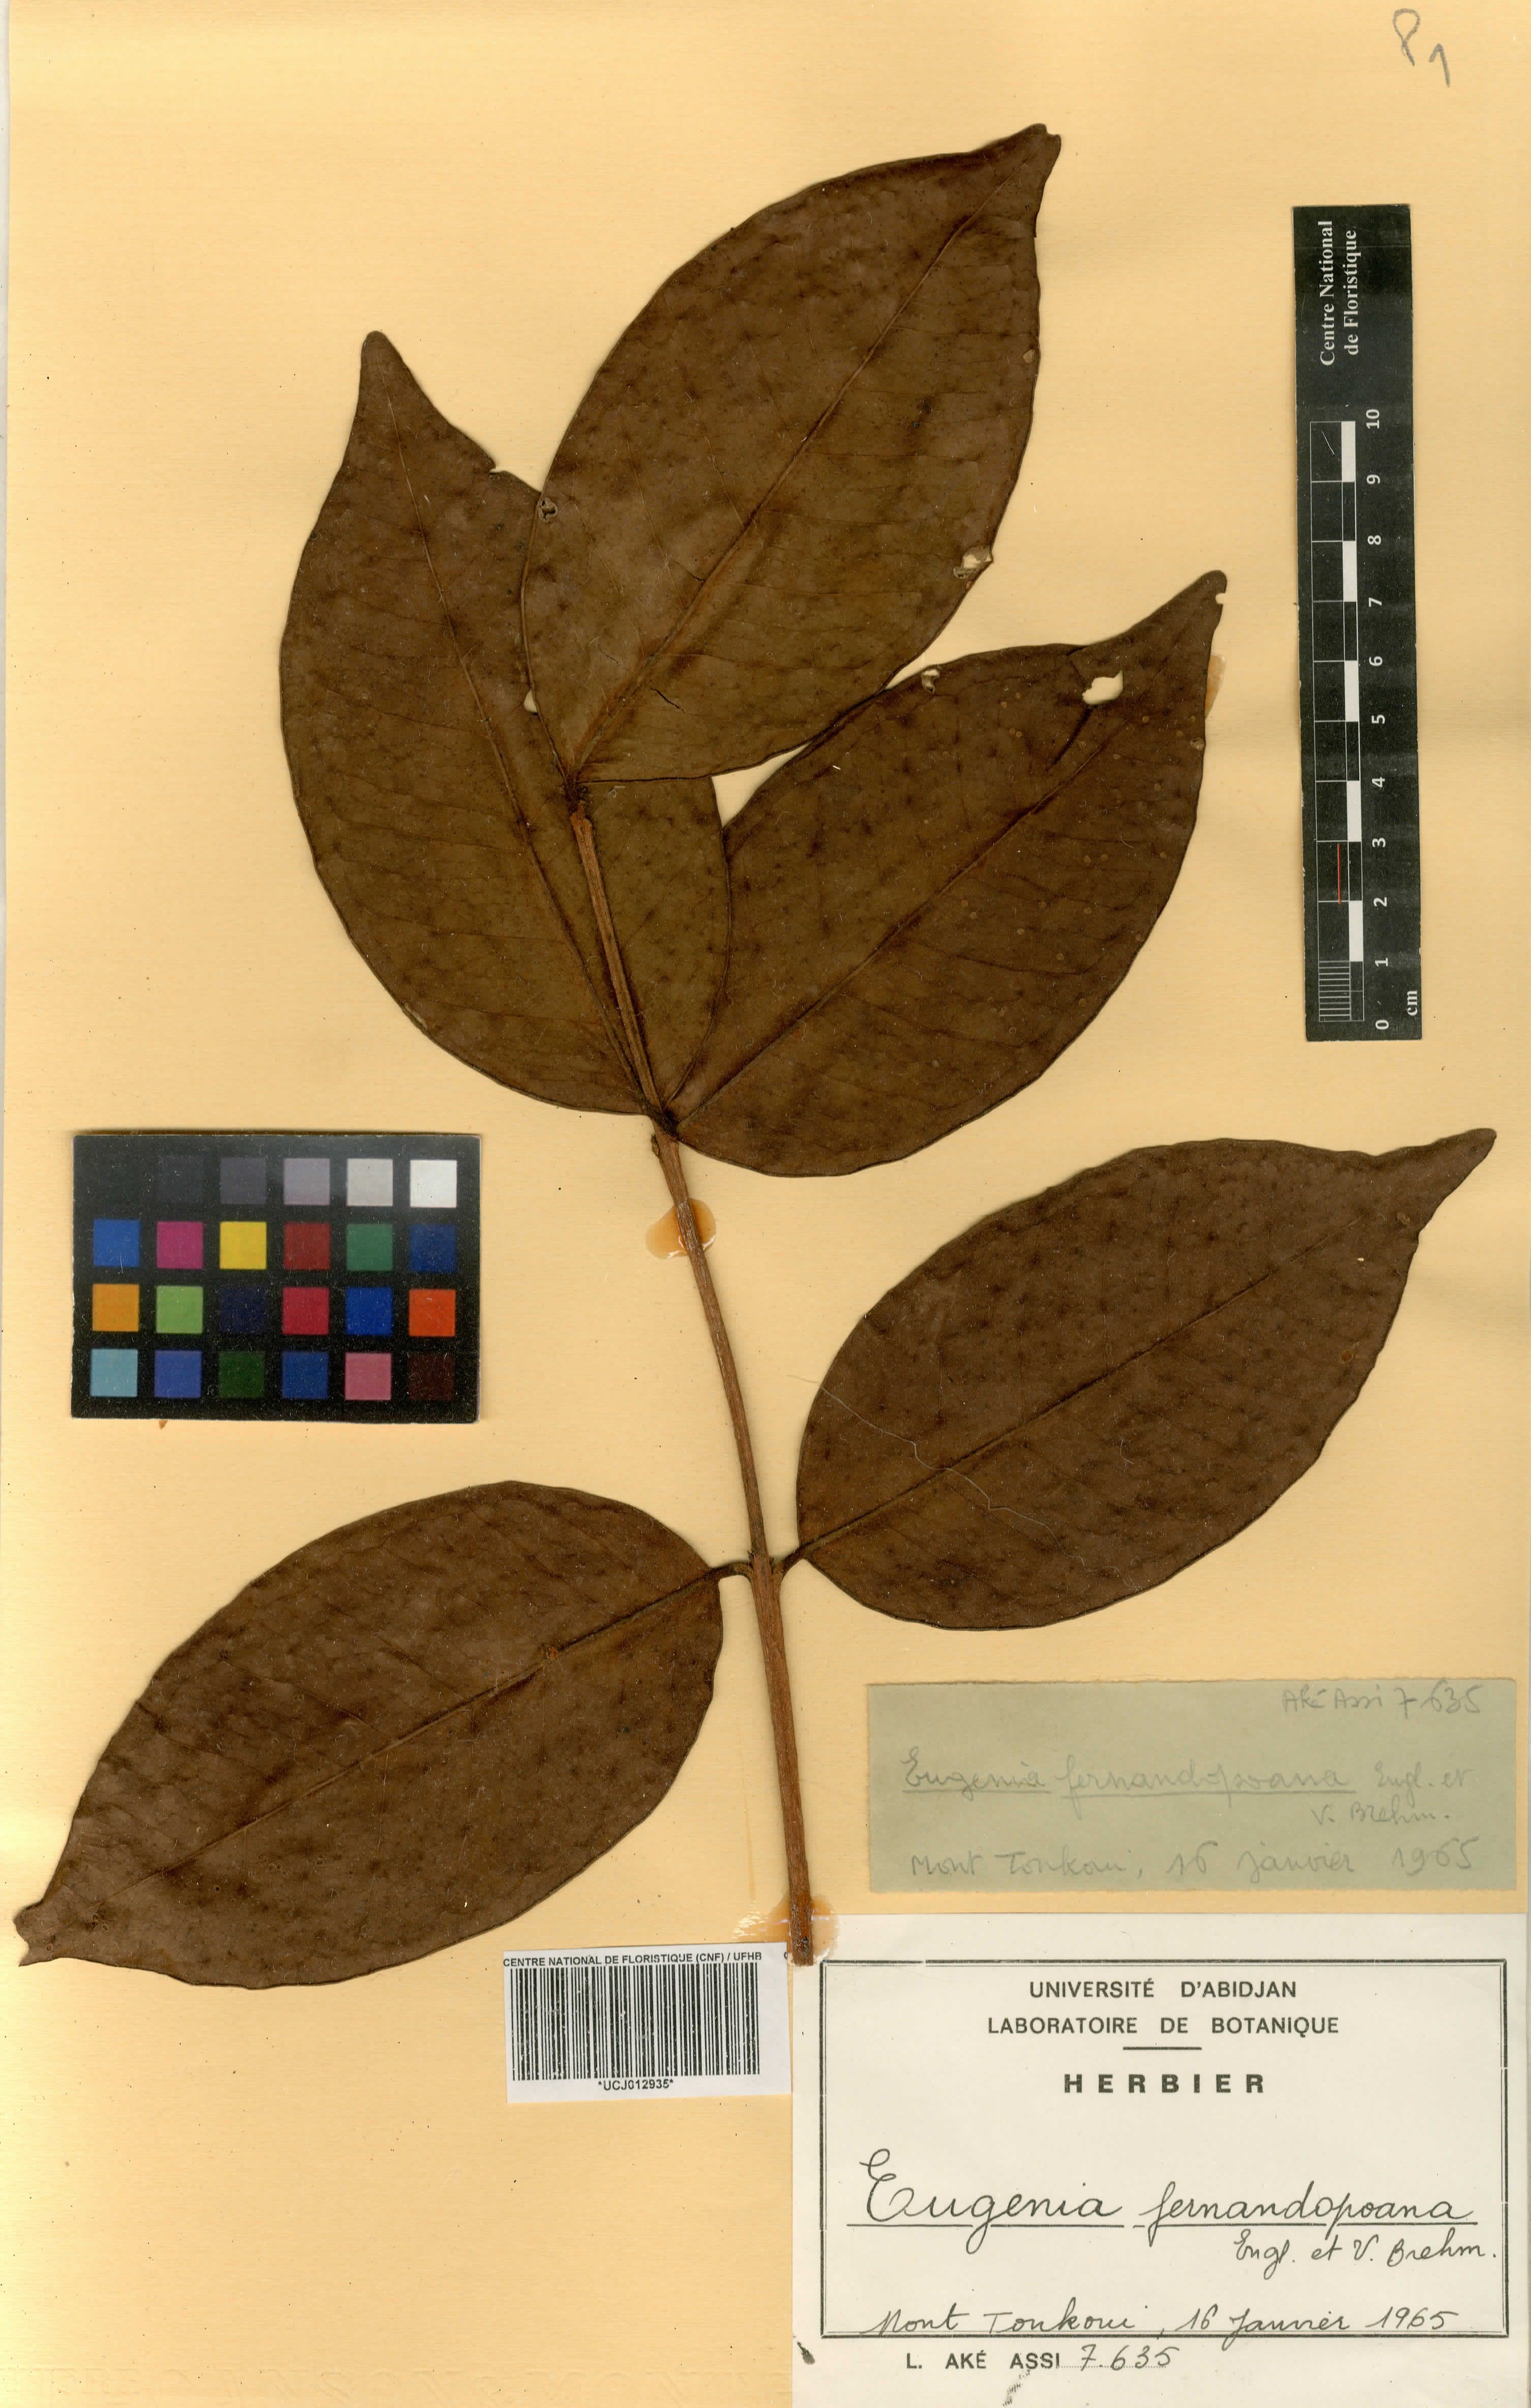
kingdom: Plantae
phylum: Tracheophyta
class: Magnoliopsida
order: Myrtales
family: Myrtaceae
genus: Eugenia
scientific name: Eugenia coronata
